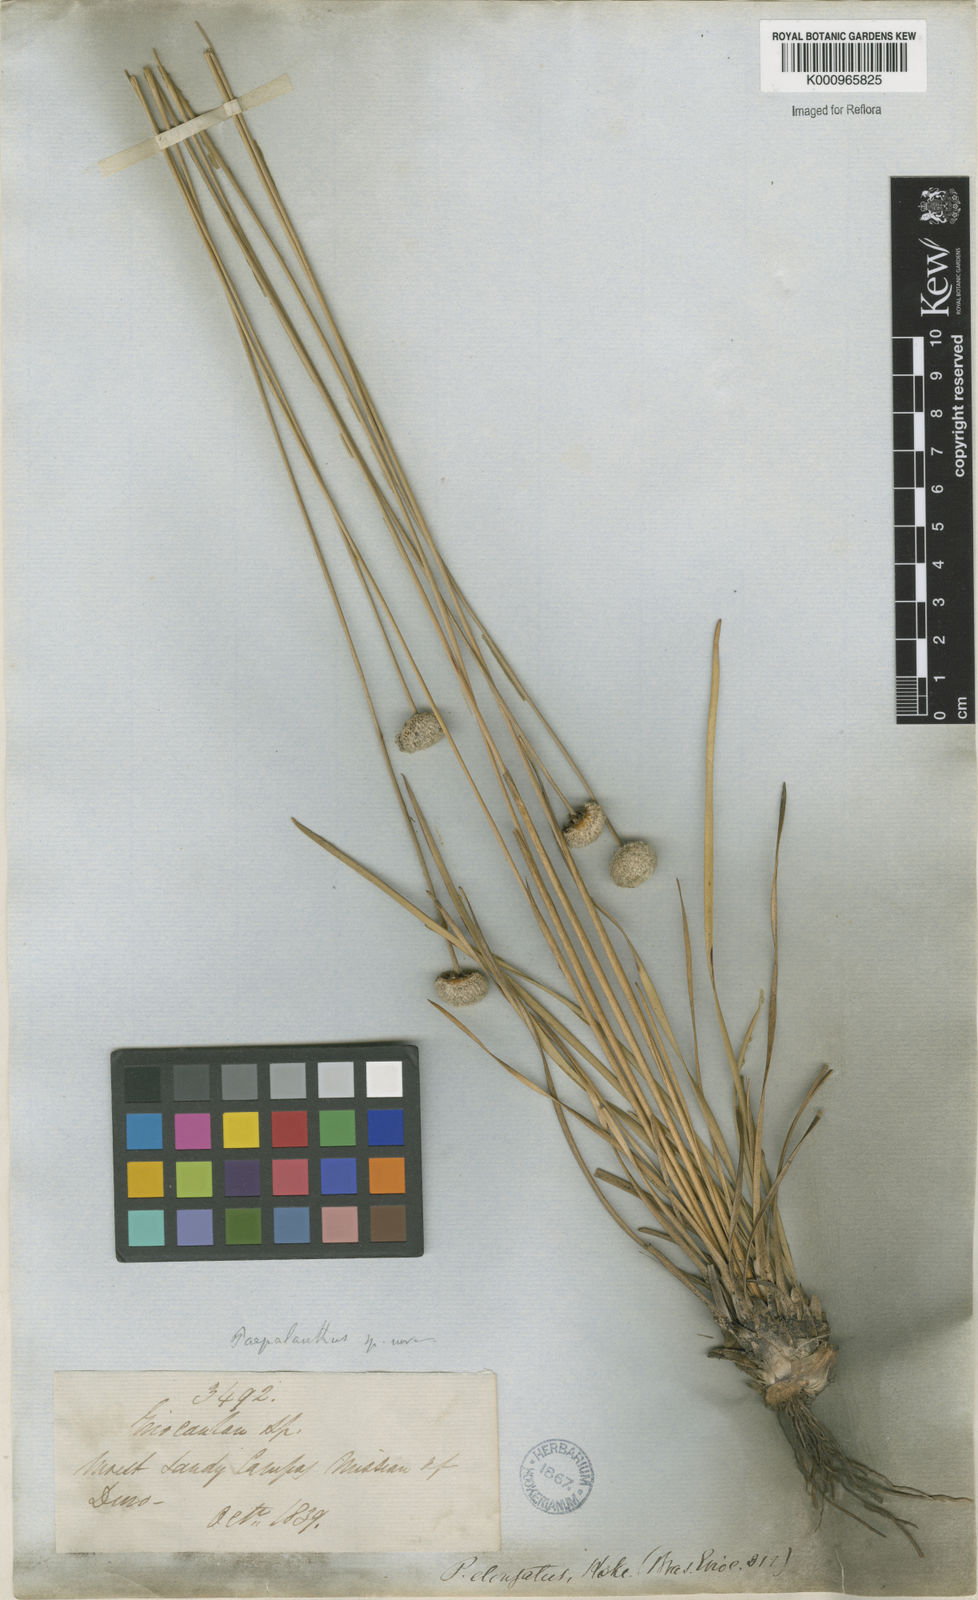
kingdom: Plantae
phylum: Tracheophyta
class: Liliopsida
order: Poales
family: Eriocaulaceae
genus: Paepalanthus
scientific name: Paepalanthus
